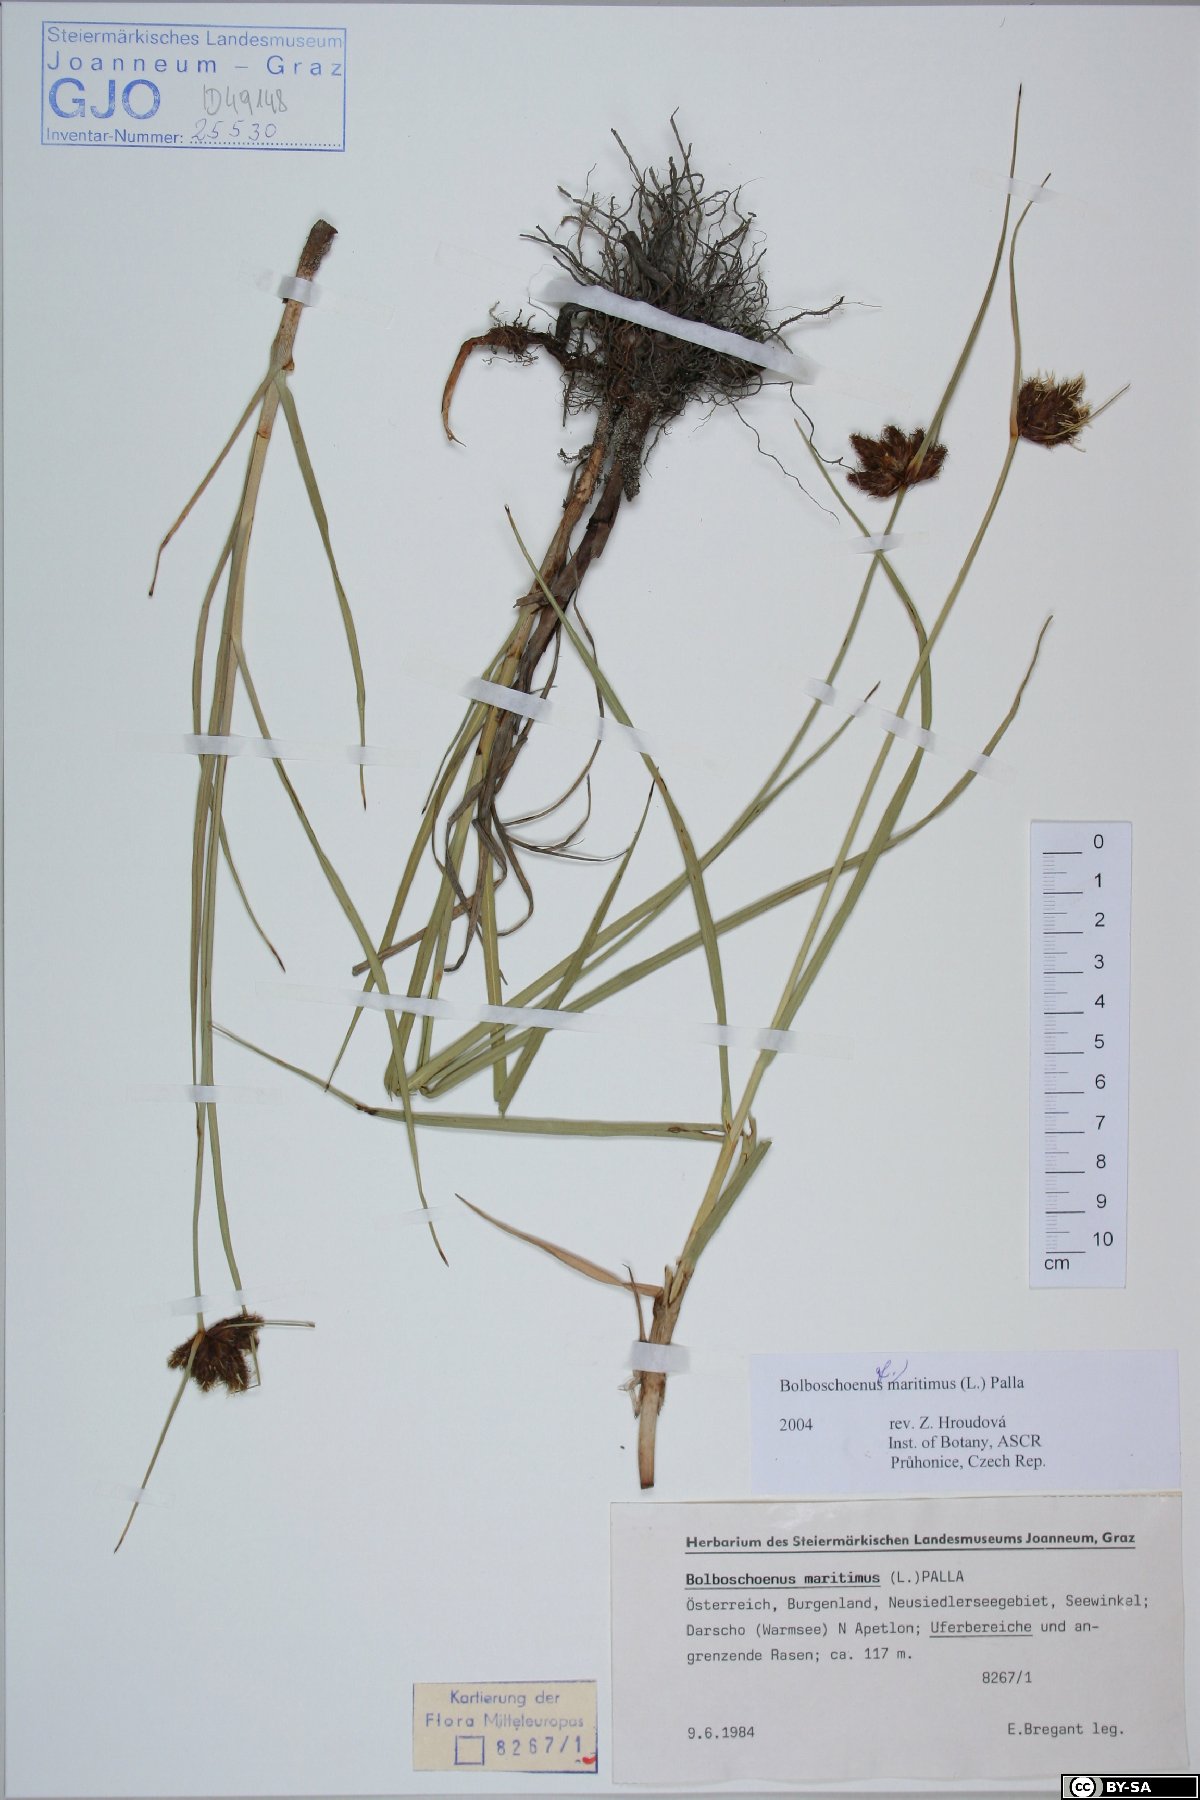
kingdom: Plantae
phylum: Tracheophyta
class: Liliopsida
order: Poales
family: Cyperaceae
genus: Bolboschoenus
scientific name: Bolboschoenus maritimus
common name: Sea club-rush
